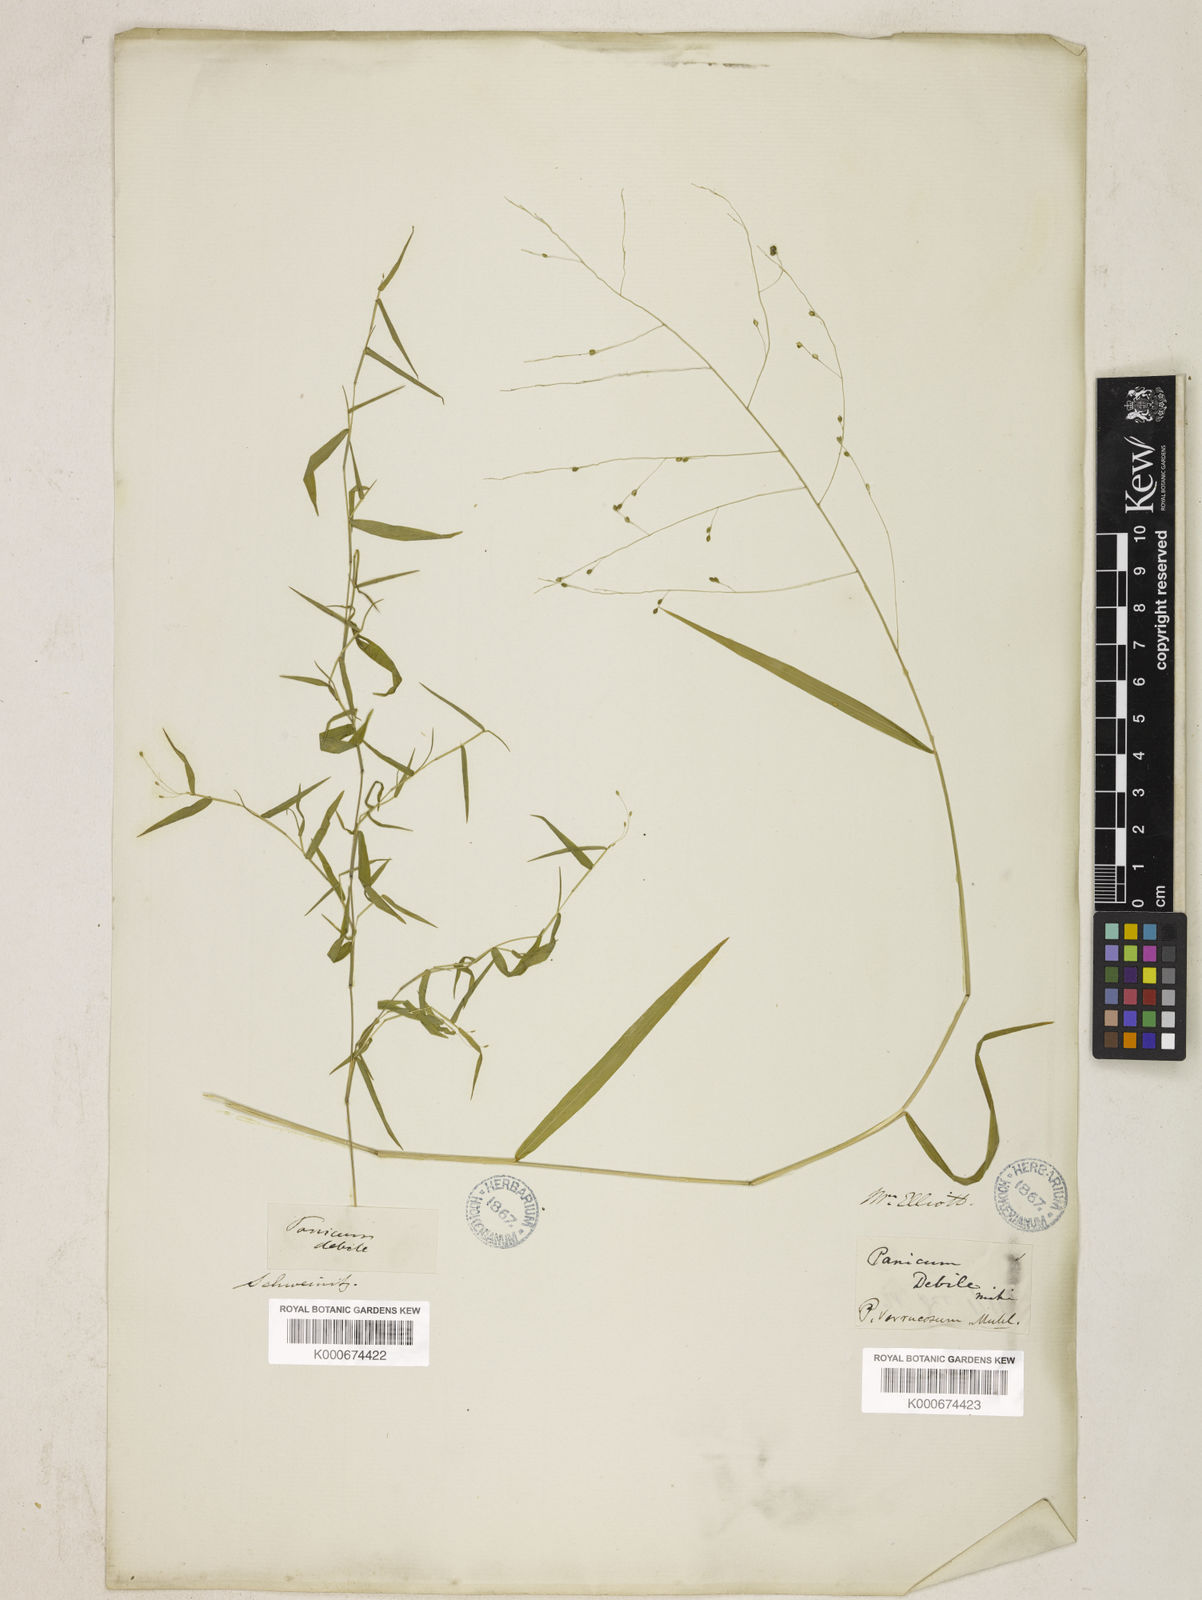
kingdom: Plantae
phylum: Tracheophyta
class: Liliopsida
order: Poales
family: Poaceae
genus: Kellochloa
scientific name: Kellochloa verrucosa
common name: Warty panic grass
